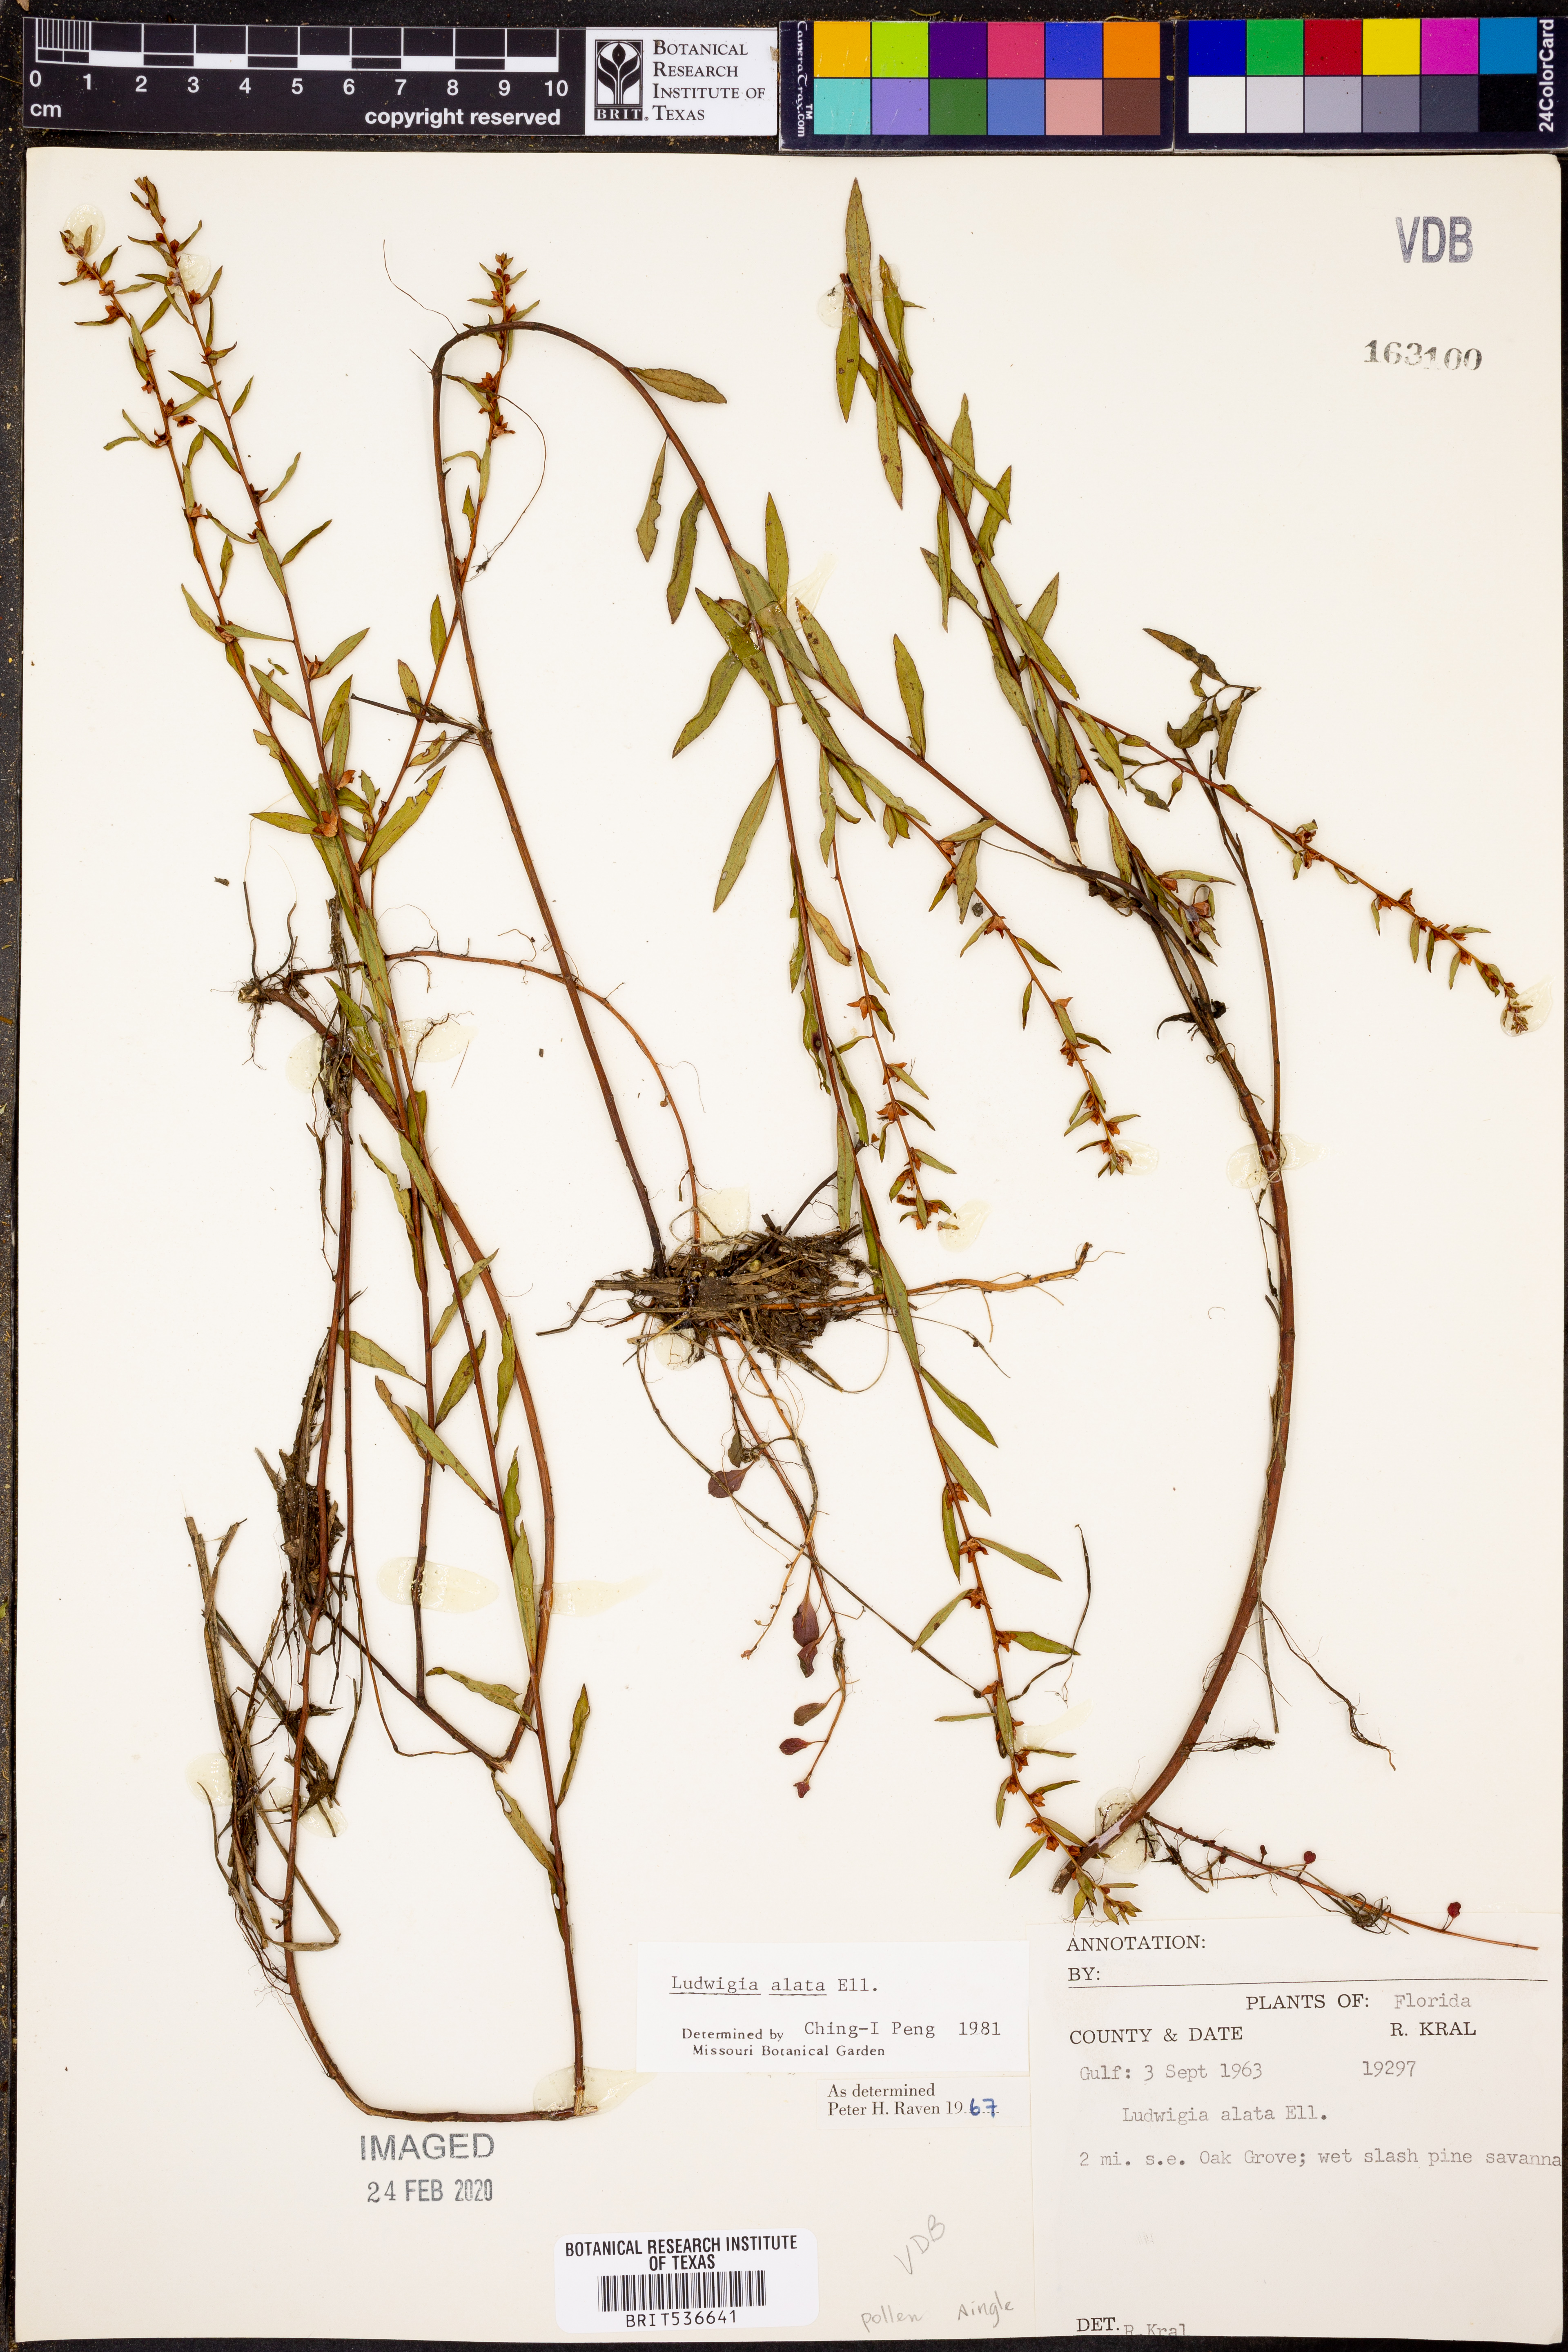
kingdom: Plantae
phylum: Tracheophyta
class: Magnoliopsida
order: Myrtales
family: Onagraceae
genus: Ludwigia
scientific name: Ludwigia alata
